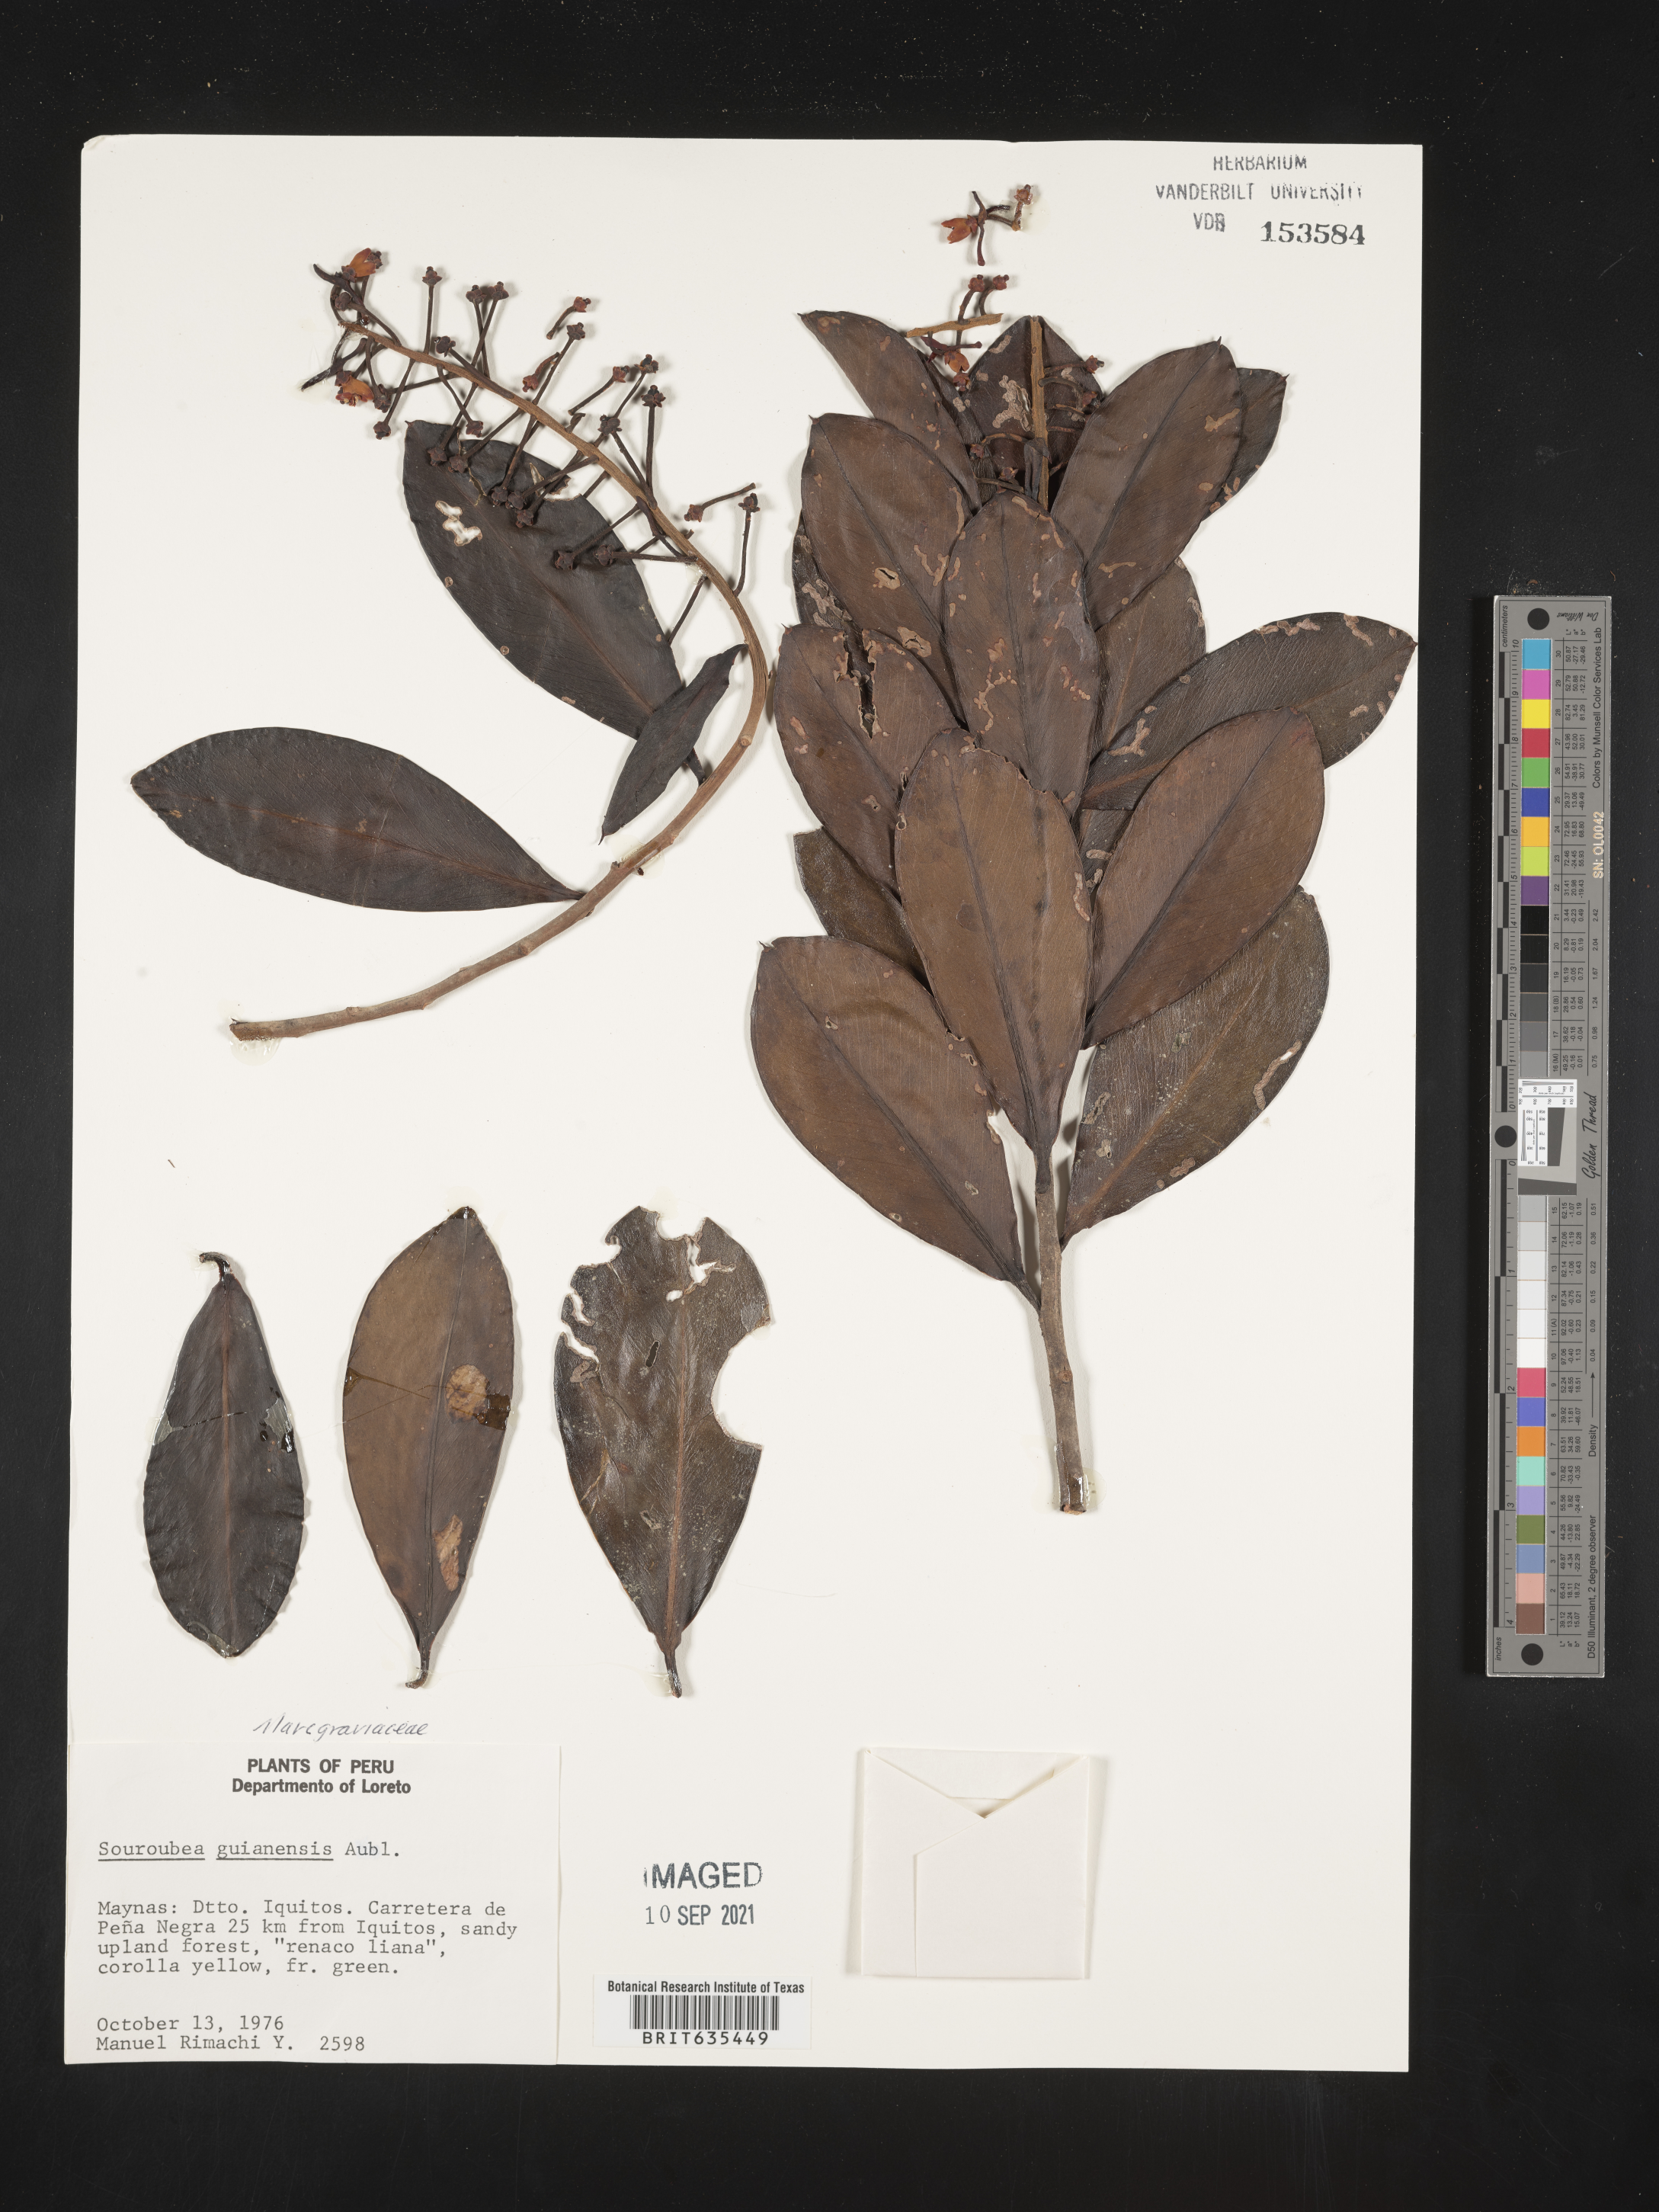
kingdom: Plantae
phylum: Tracheophyta
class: Magnoliopsida
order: Ericales
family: Marcgraviaceae
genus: Souroubea
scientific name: Souroubea
